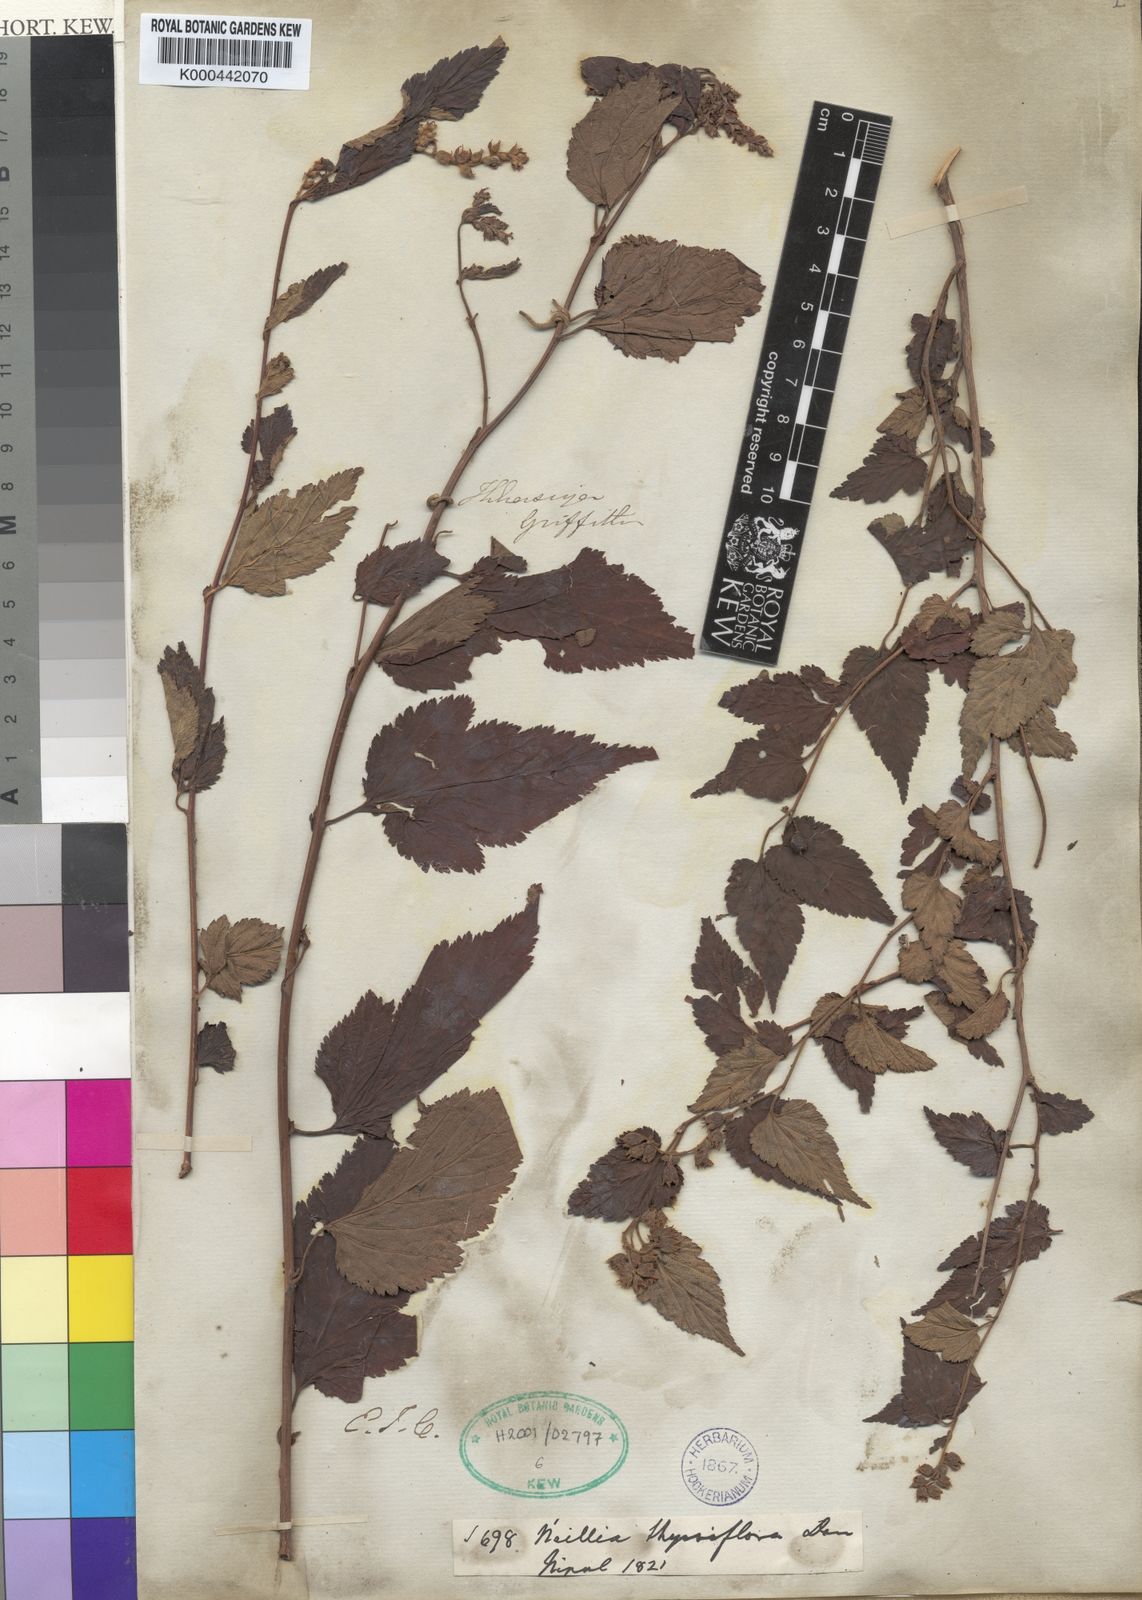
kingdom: Plantae
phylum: Tracheophyta
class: Magnoliopsida
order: Rosales
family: Rosaceae
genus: Neillia
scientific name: Neillia thyrsiflora
